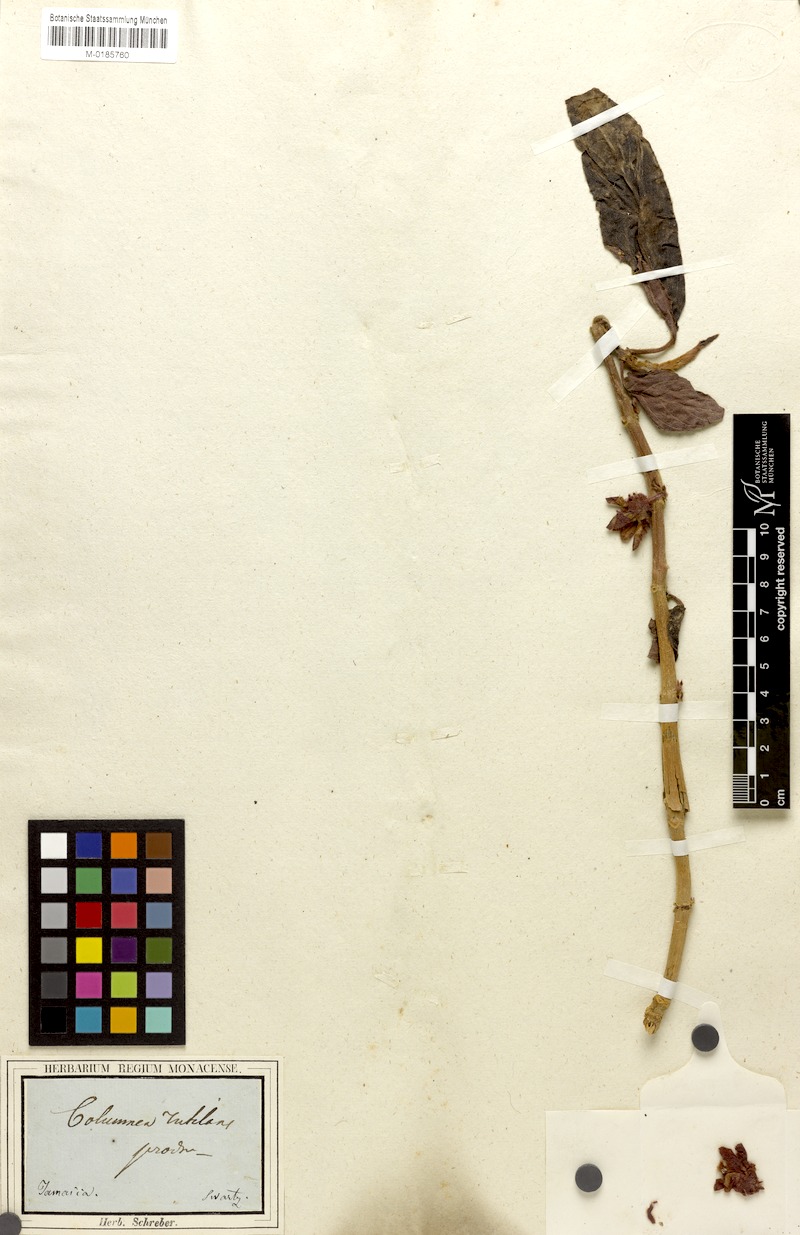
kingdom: Plantae
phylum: Tracheophyta
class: Magnoliopsida
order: Lamiales
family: Gesneriaceae
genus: Columnea
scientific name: Columnea rutilans
